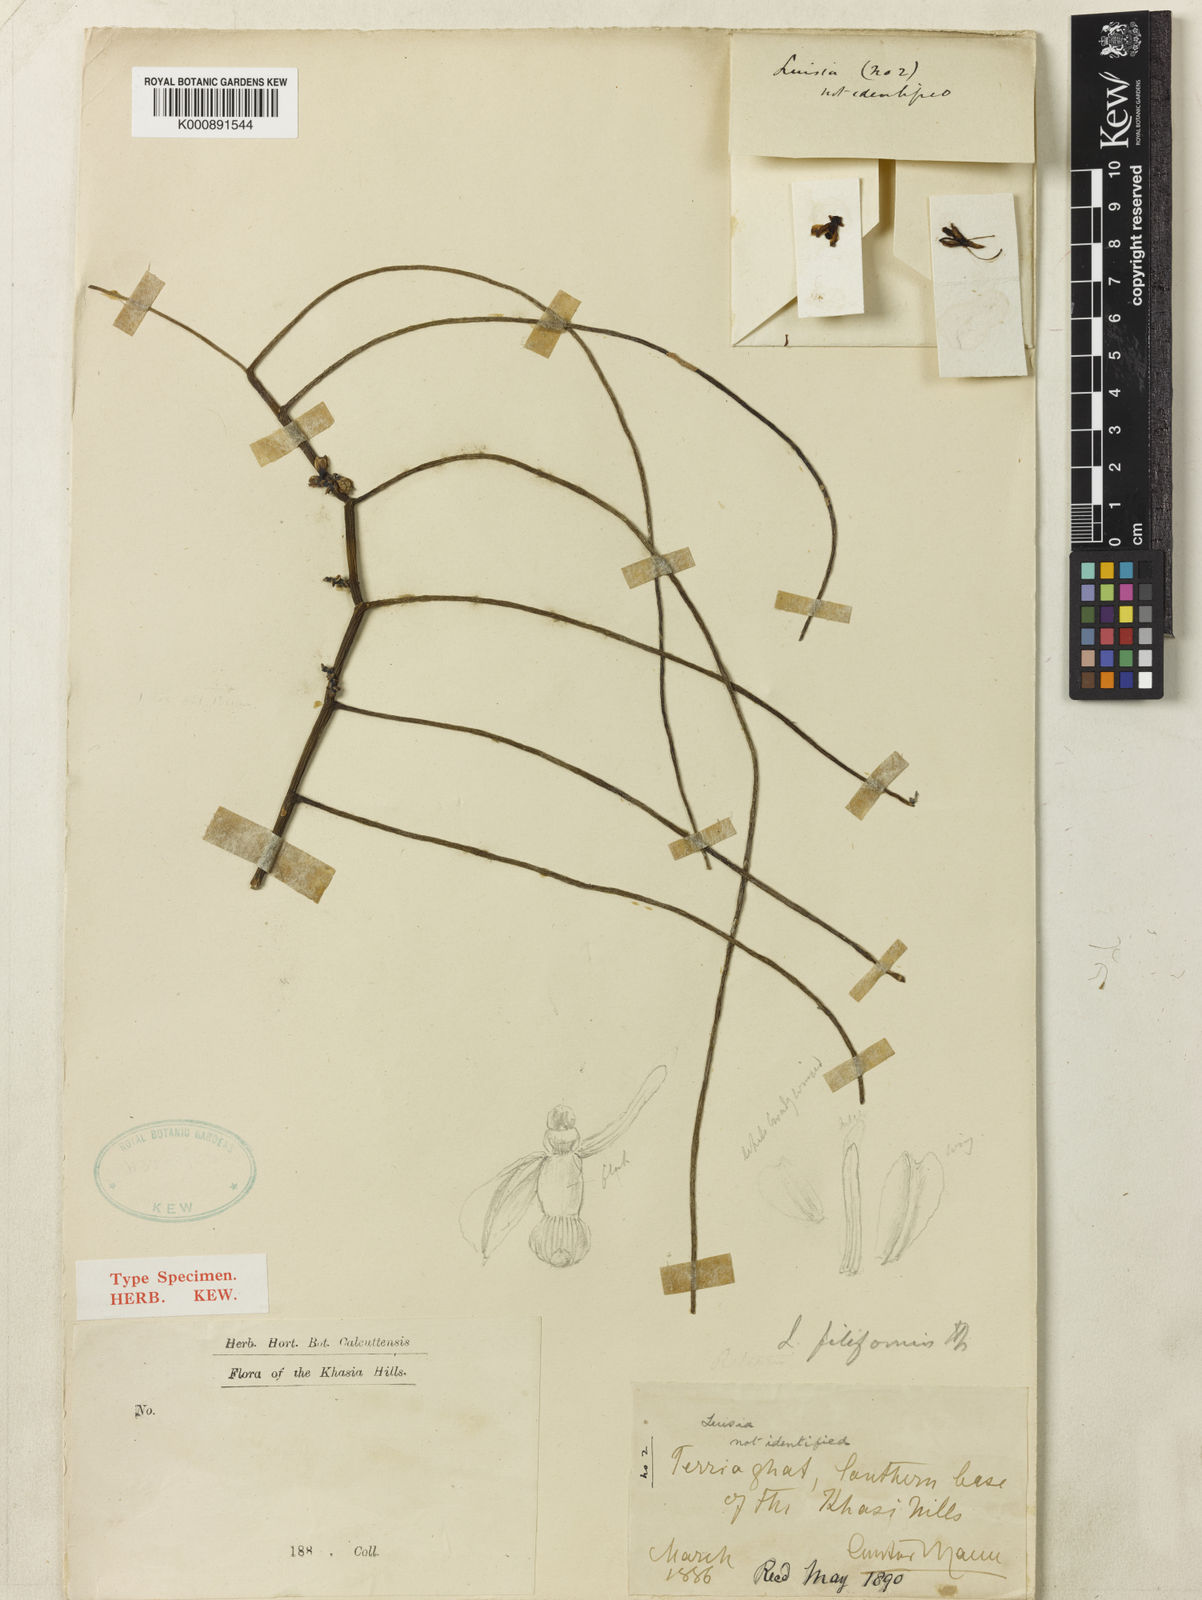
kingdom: Plantae
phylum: Tracheophyta
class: Liliopsida
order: Asparagales
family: Orchidaceae
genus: Luisia
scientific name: Luisia filiformis
